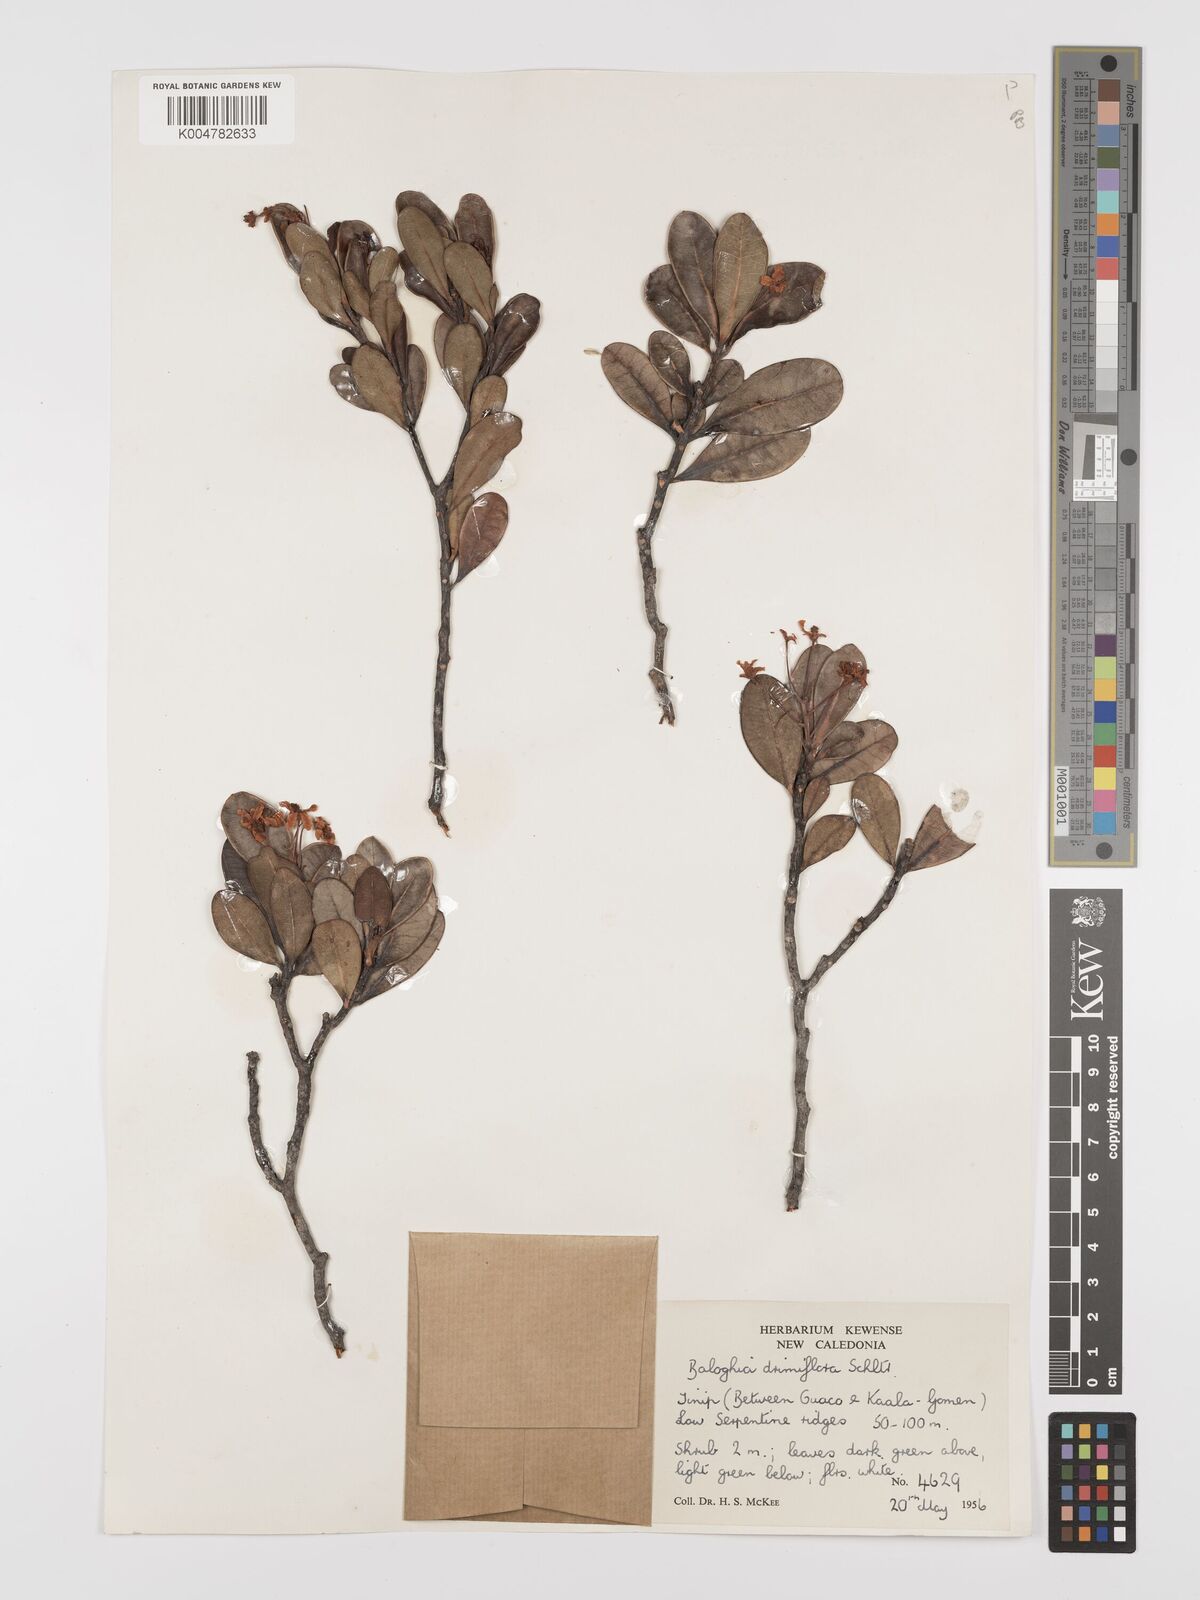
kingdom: Plantae
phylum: Tracheophyta
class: Magnoliopsida
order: Malpighiales
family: Euphorbiaceae
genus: Baloghia
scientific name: Baloghia drimiflora
